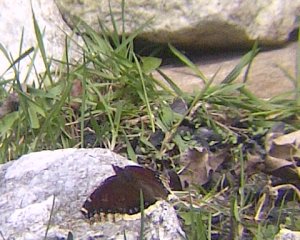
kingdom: Animalia
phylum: Arthropoda
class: Insecta
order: Lepidoptera
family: Nymphalidae
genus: Nymphalis
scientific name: Nymphalis antiopa
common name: Mourning Cloak
